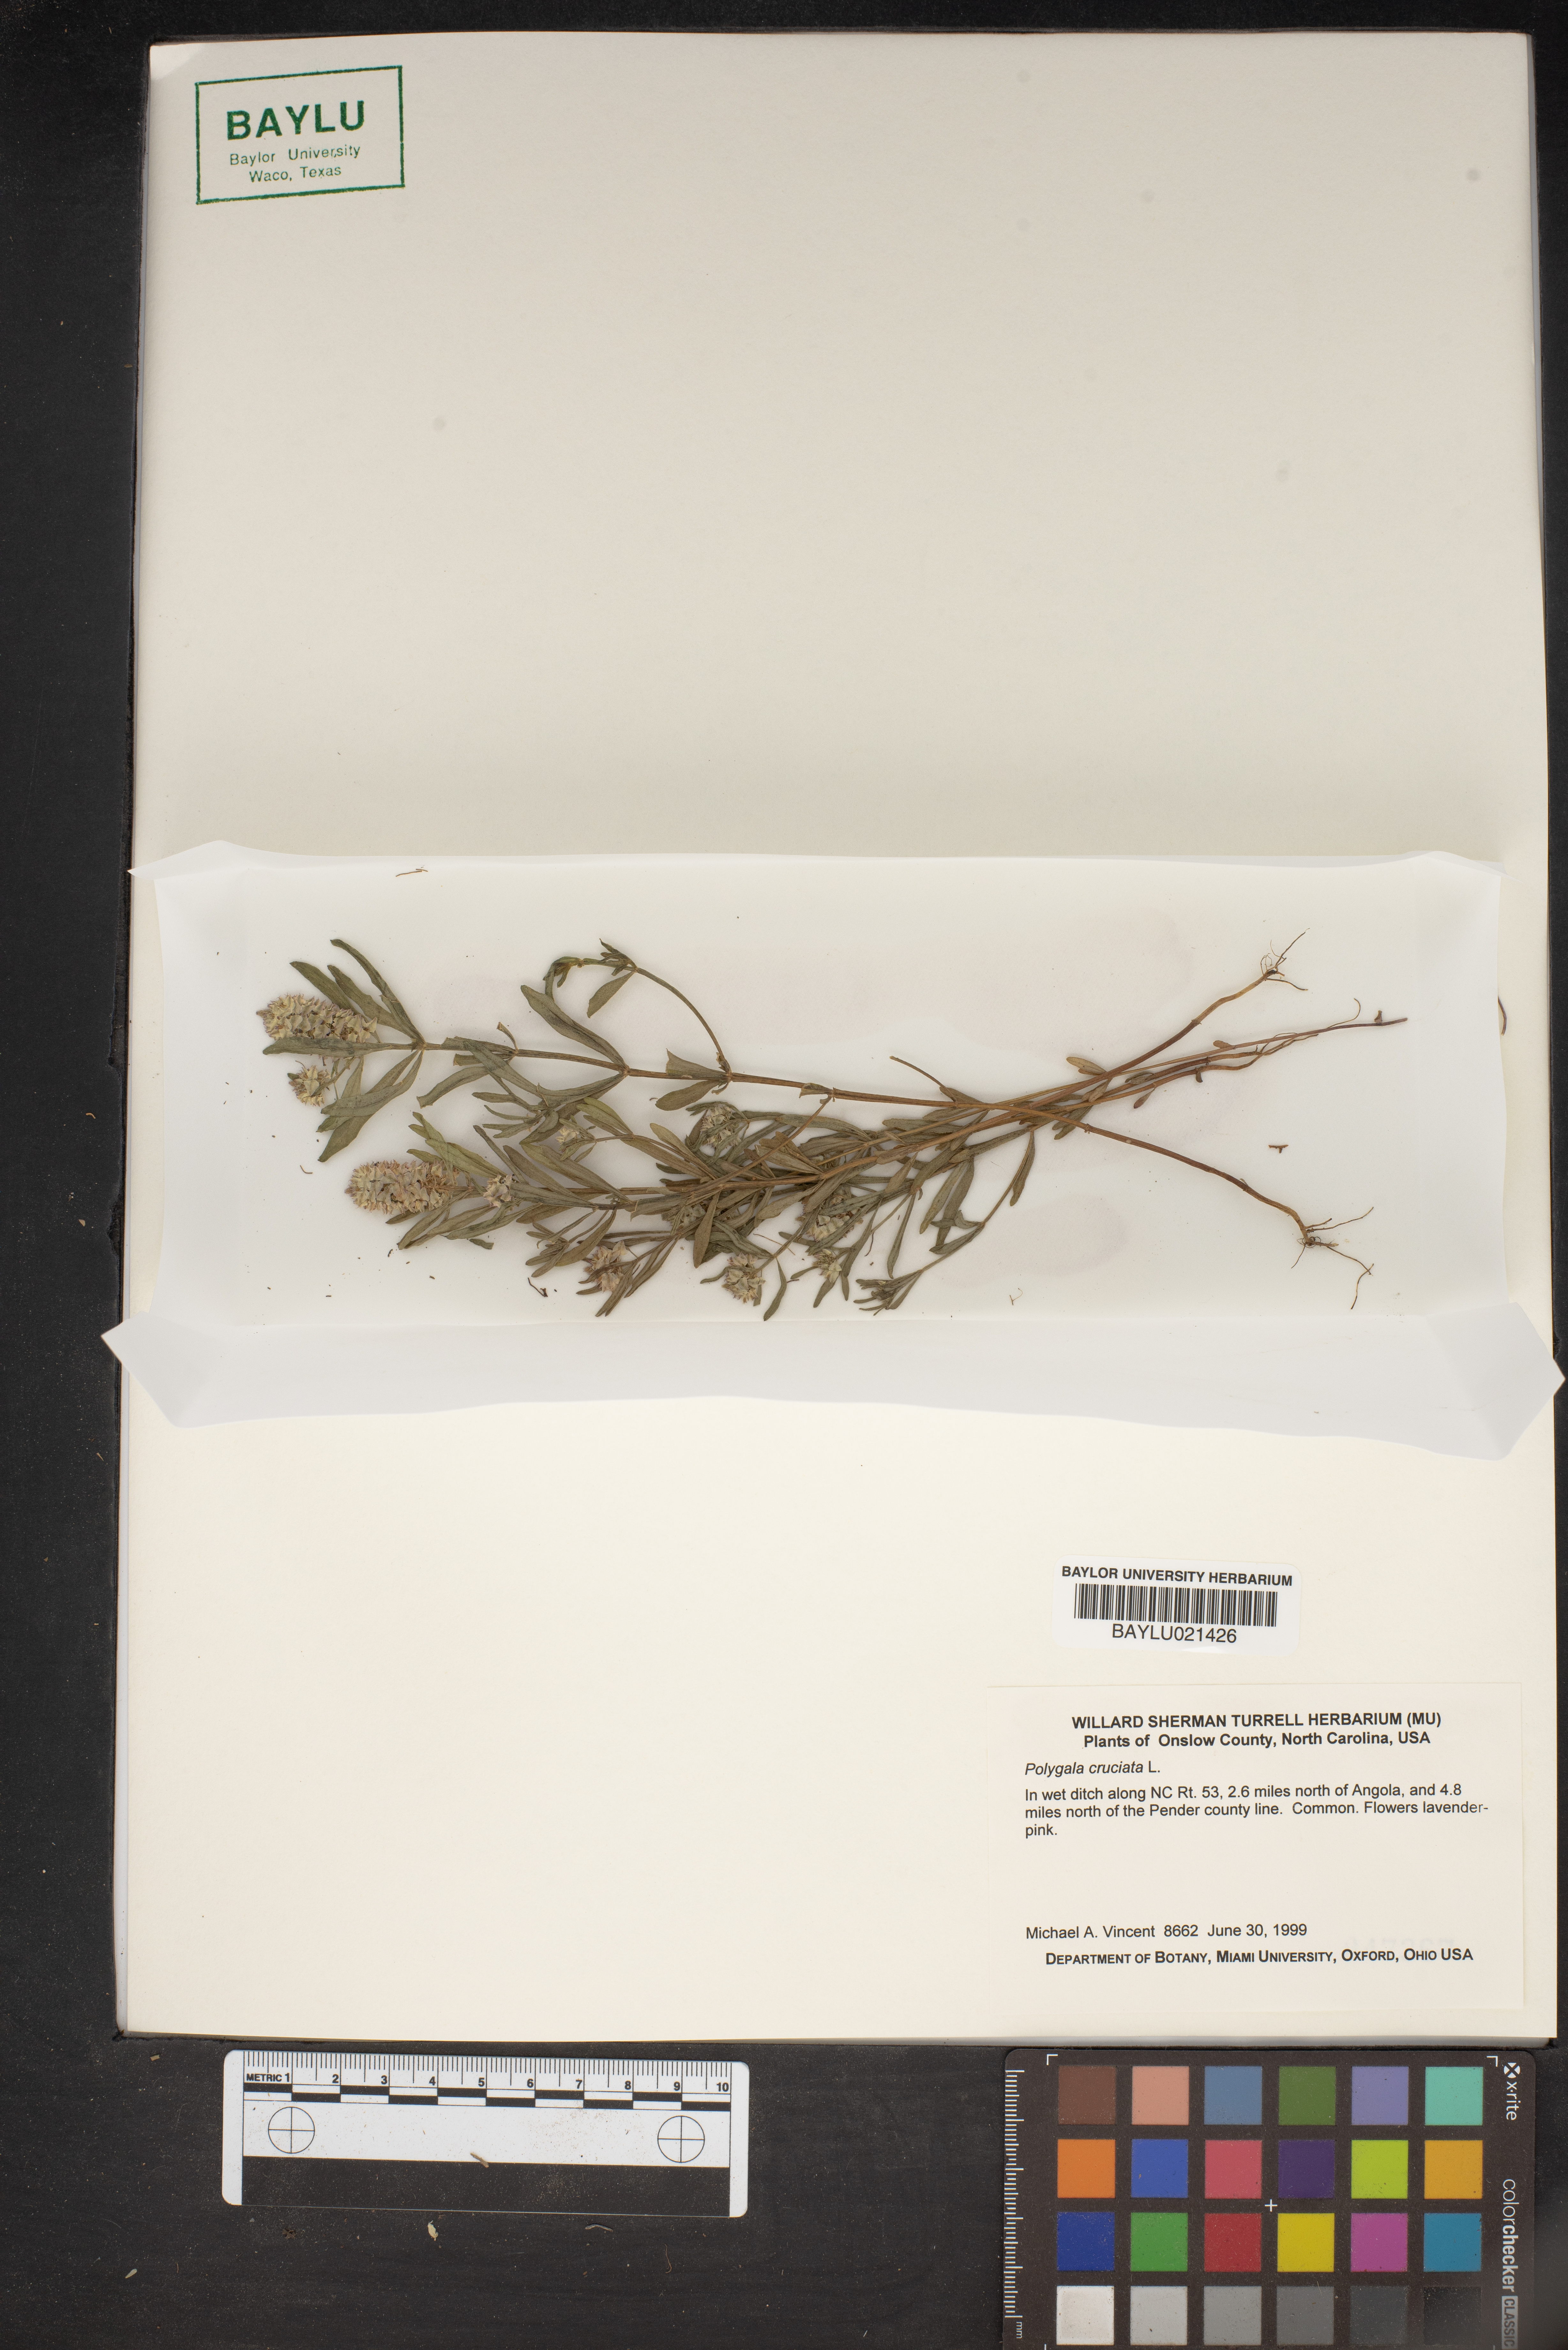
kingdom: Plantae
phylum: Tracheophyta
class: Magnoliopsida
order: Fabales
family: Polygalaceae
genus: Polygala
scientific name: Polygala cruciata
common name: Drumheads
